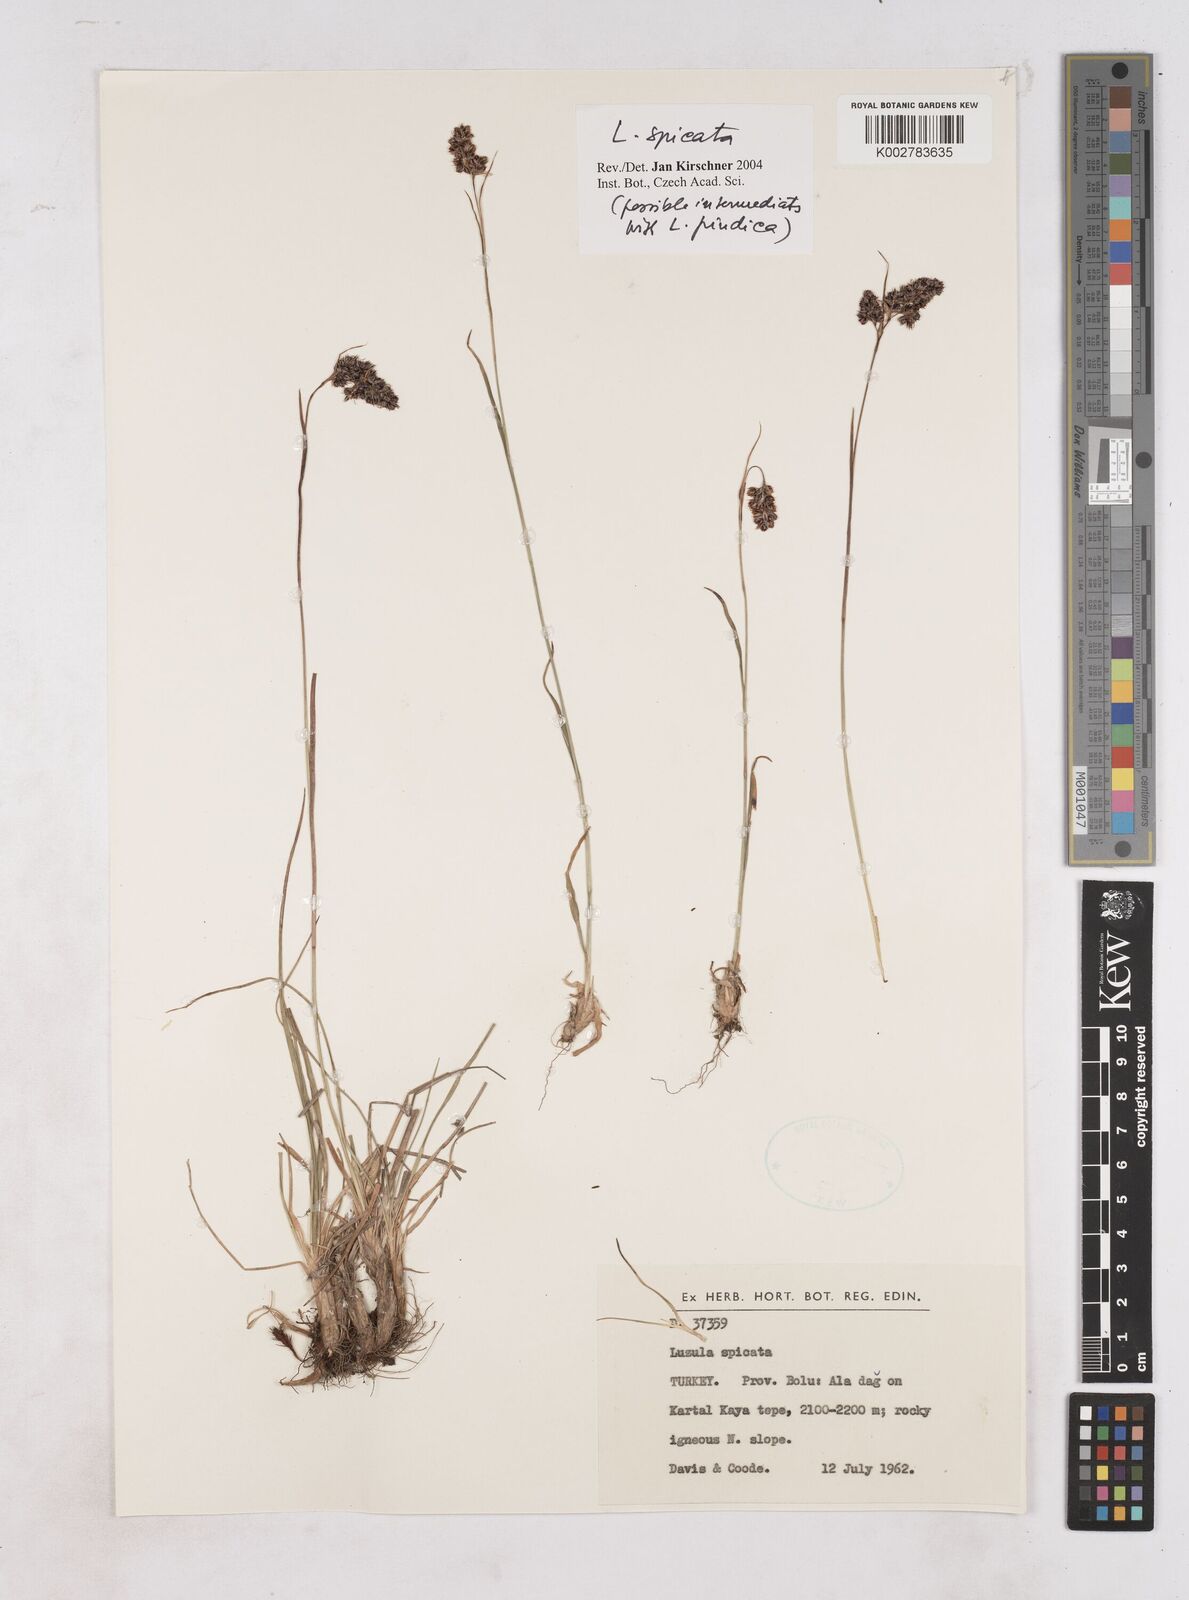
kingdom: Plantae
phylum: Tracheophyta
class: Liliopsida
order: Poales
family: Juncaceae
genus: Luzula
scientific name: Luzula spicata
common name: Spiked wood-rush
